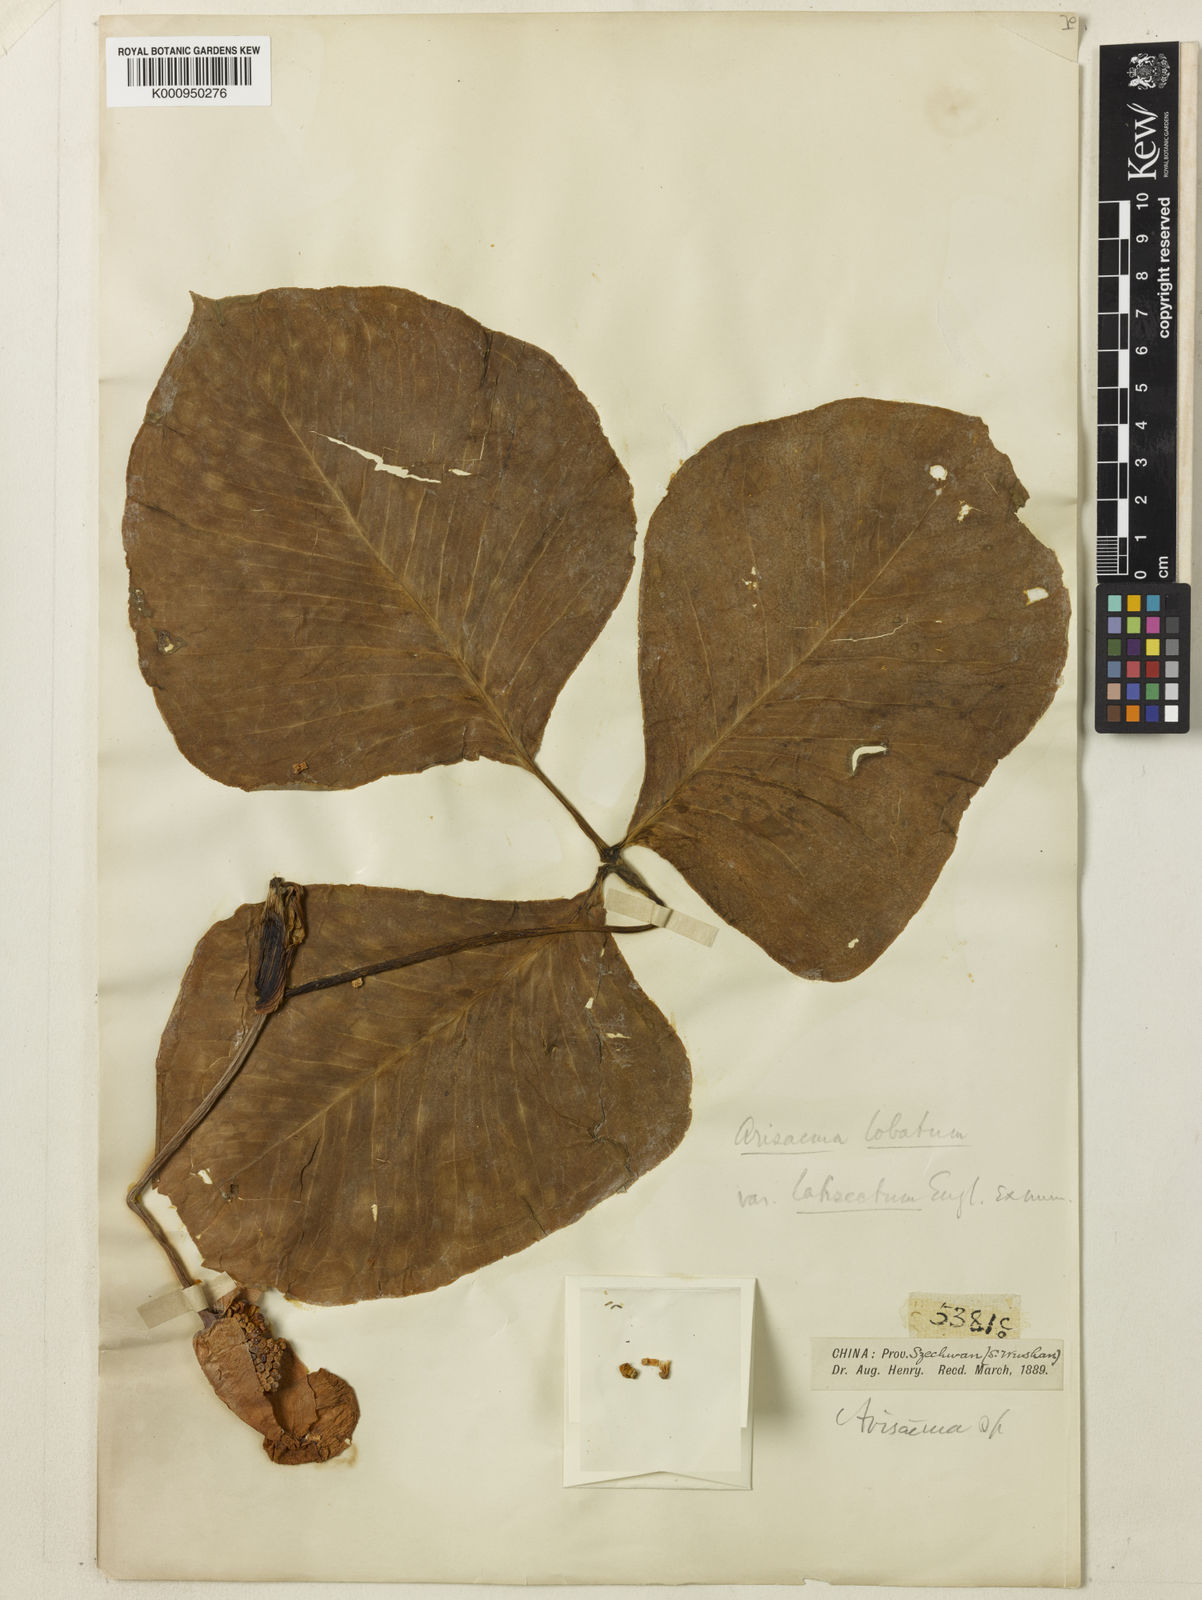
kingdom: Plantae
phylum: Tracheophyta
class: Liliopsida
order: Alismatales
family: Araceae
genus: Arisaema
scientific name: Arisaema lobatum
